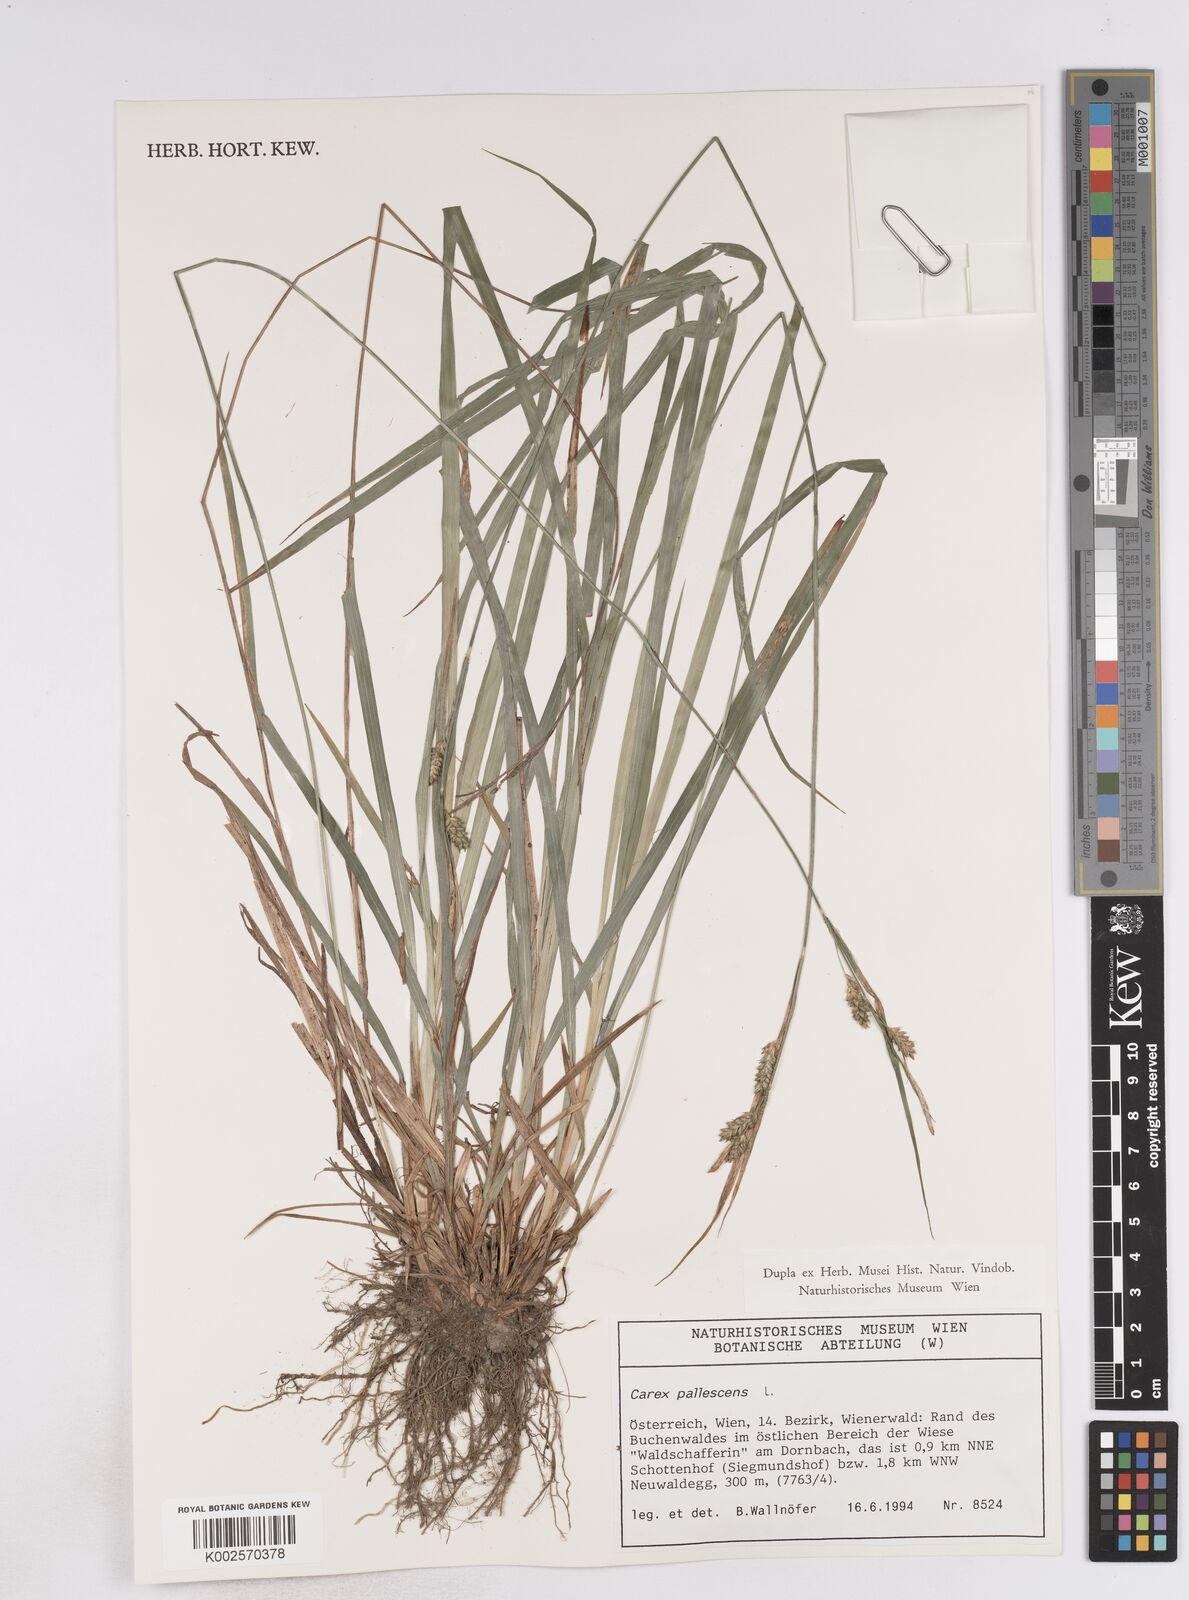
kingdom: Plantae
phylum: Tracheophyta
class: Liliopsida
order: Poales
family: Cyperaceae
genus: Carex
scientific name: Carex pallescens
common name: Pale sedge
